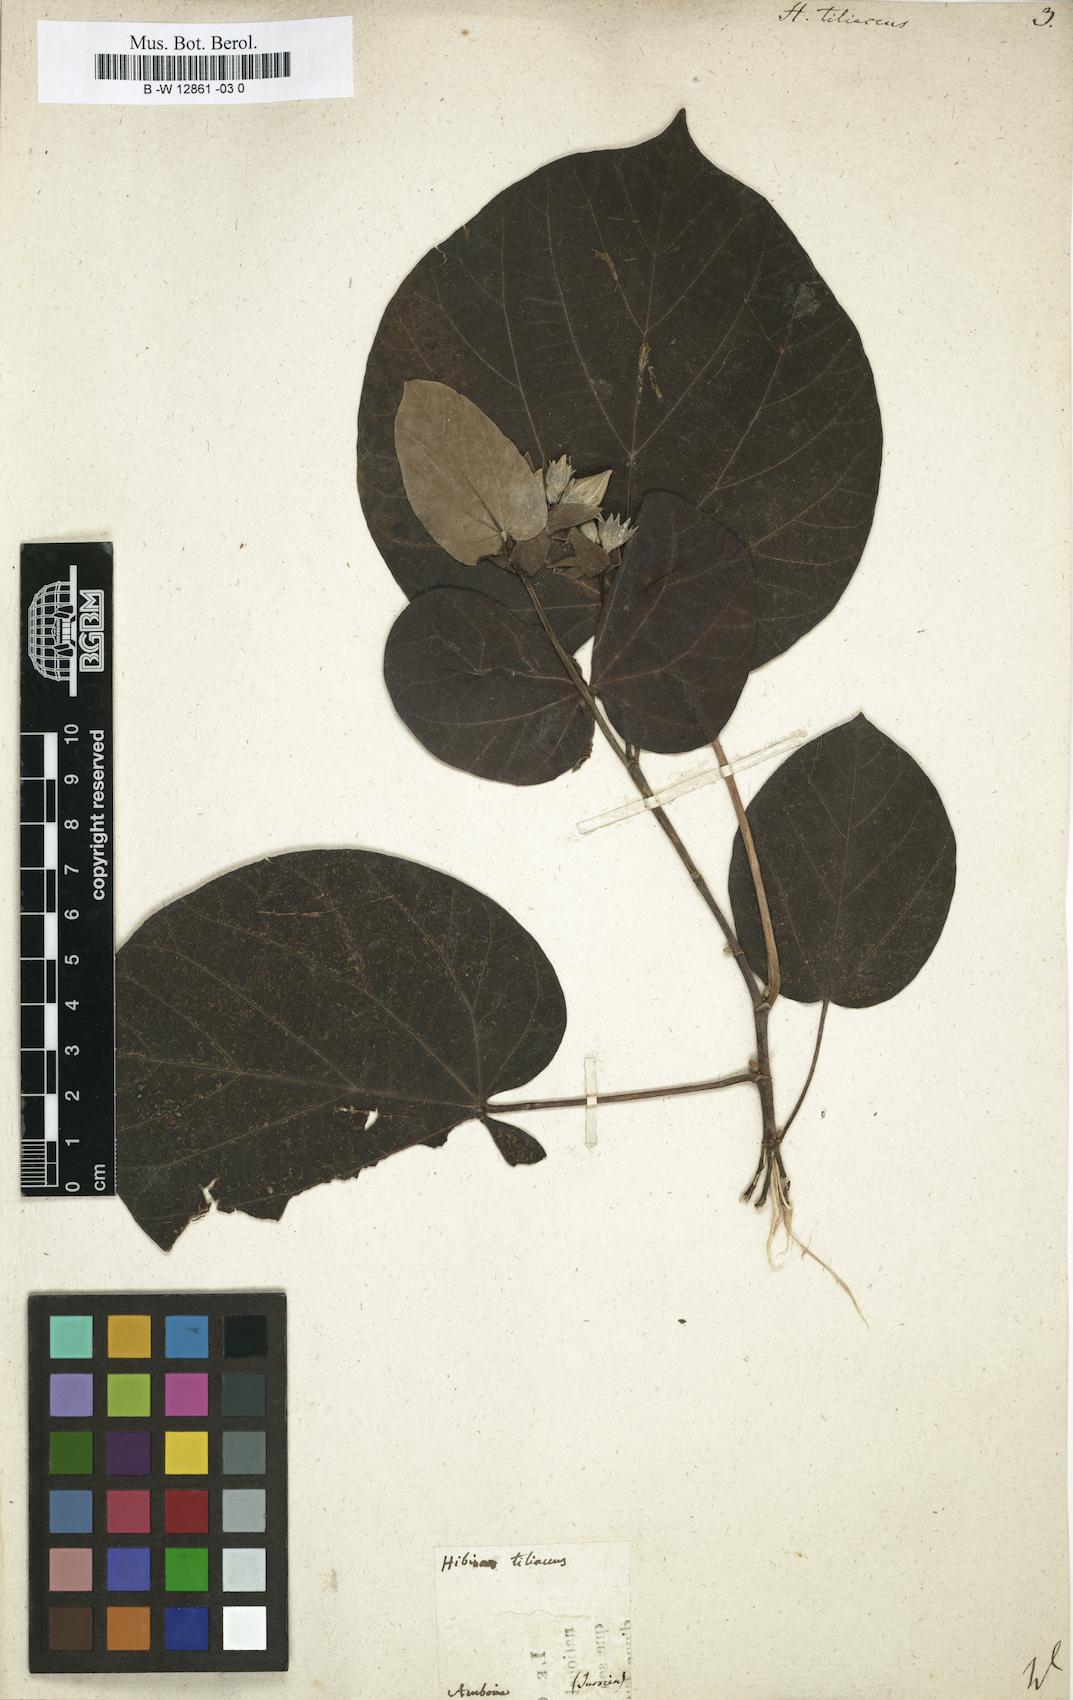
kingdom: Plantae
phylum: Tracheophyta
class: Magnoliopsida
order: Malvales
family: Malvaceae
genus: Talipariti
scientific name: Talipariti tiliaceum
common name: Sea hibiscus
